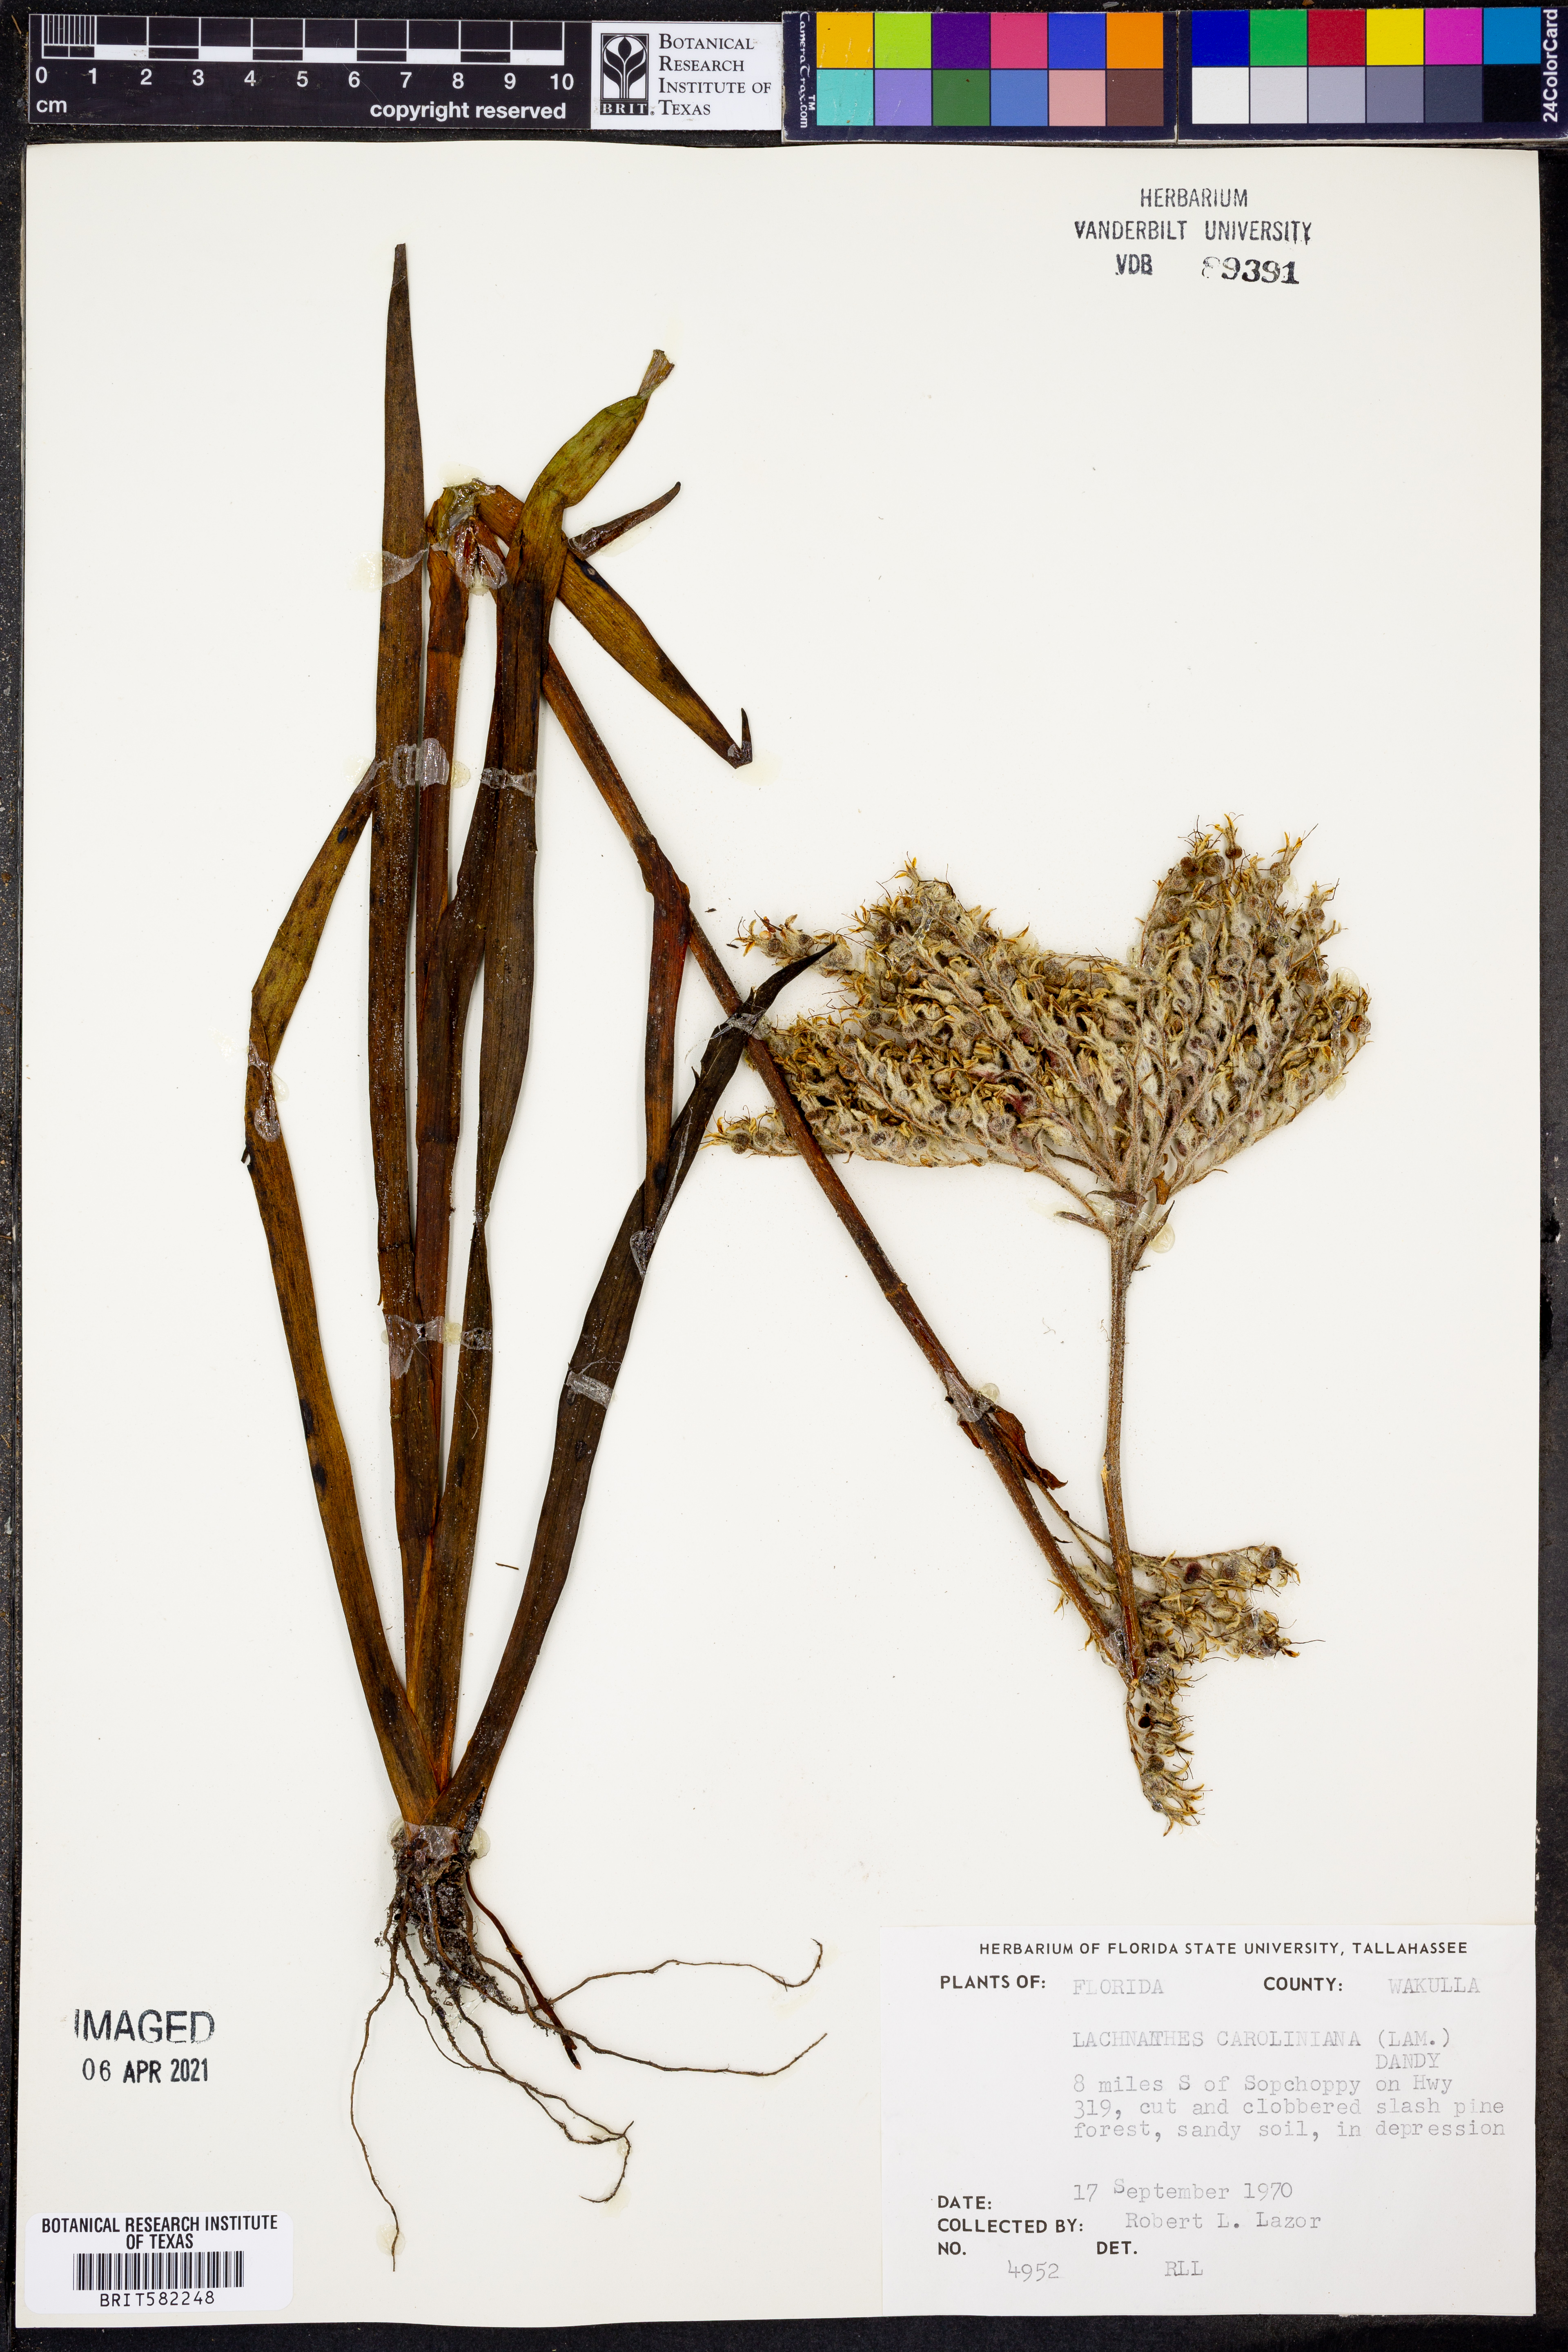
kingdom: Plantae
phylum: Tracheophyta
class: Liliopsida
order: Commelinales
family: Haemodoraceae
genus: Lachnanthes
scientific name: Lachnanthes caroliniana
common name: Carolina redroot
